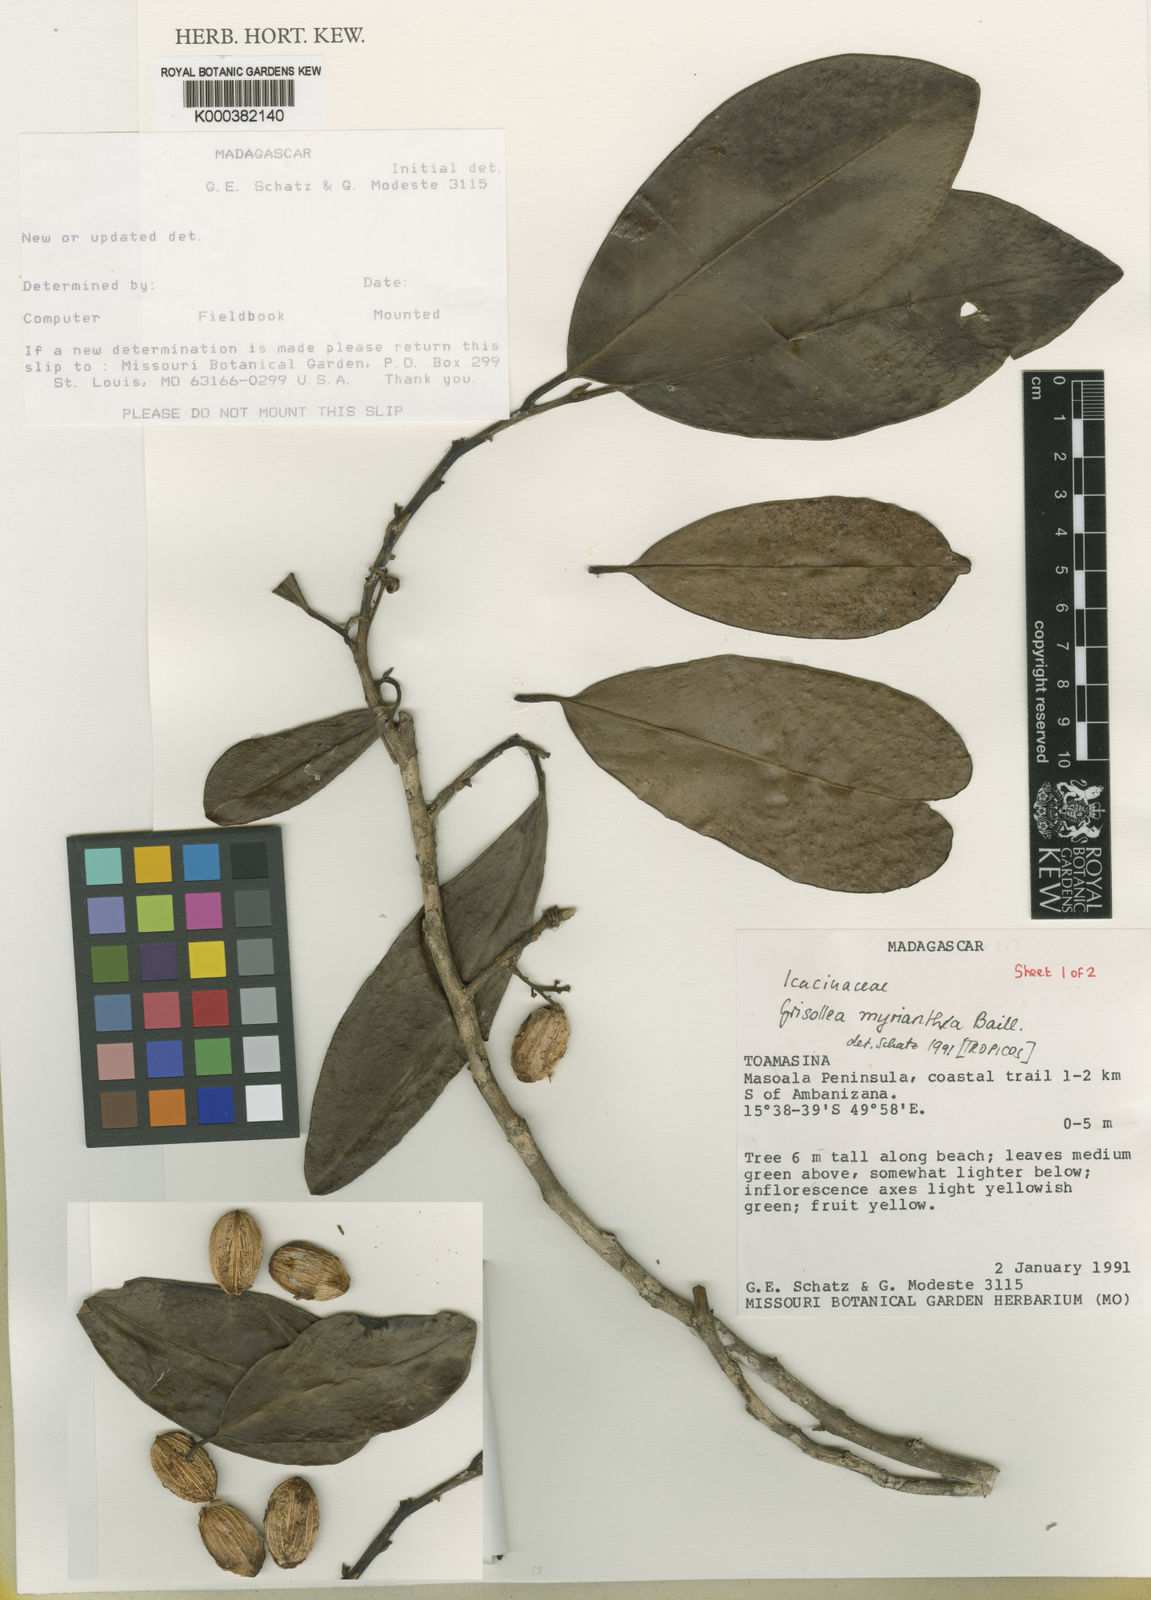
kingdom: Plantae
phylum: Tracheophyta
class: Magnoliopsida
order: Cardiopteridales
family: Stemonuraceae
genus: Grisollea
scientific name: Grisollea myriantha
